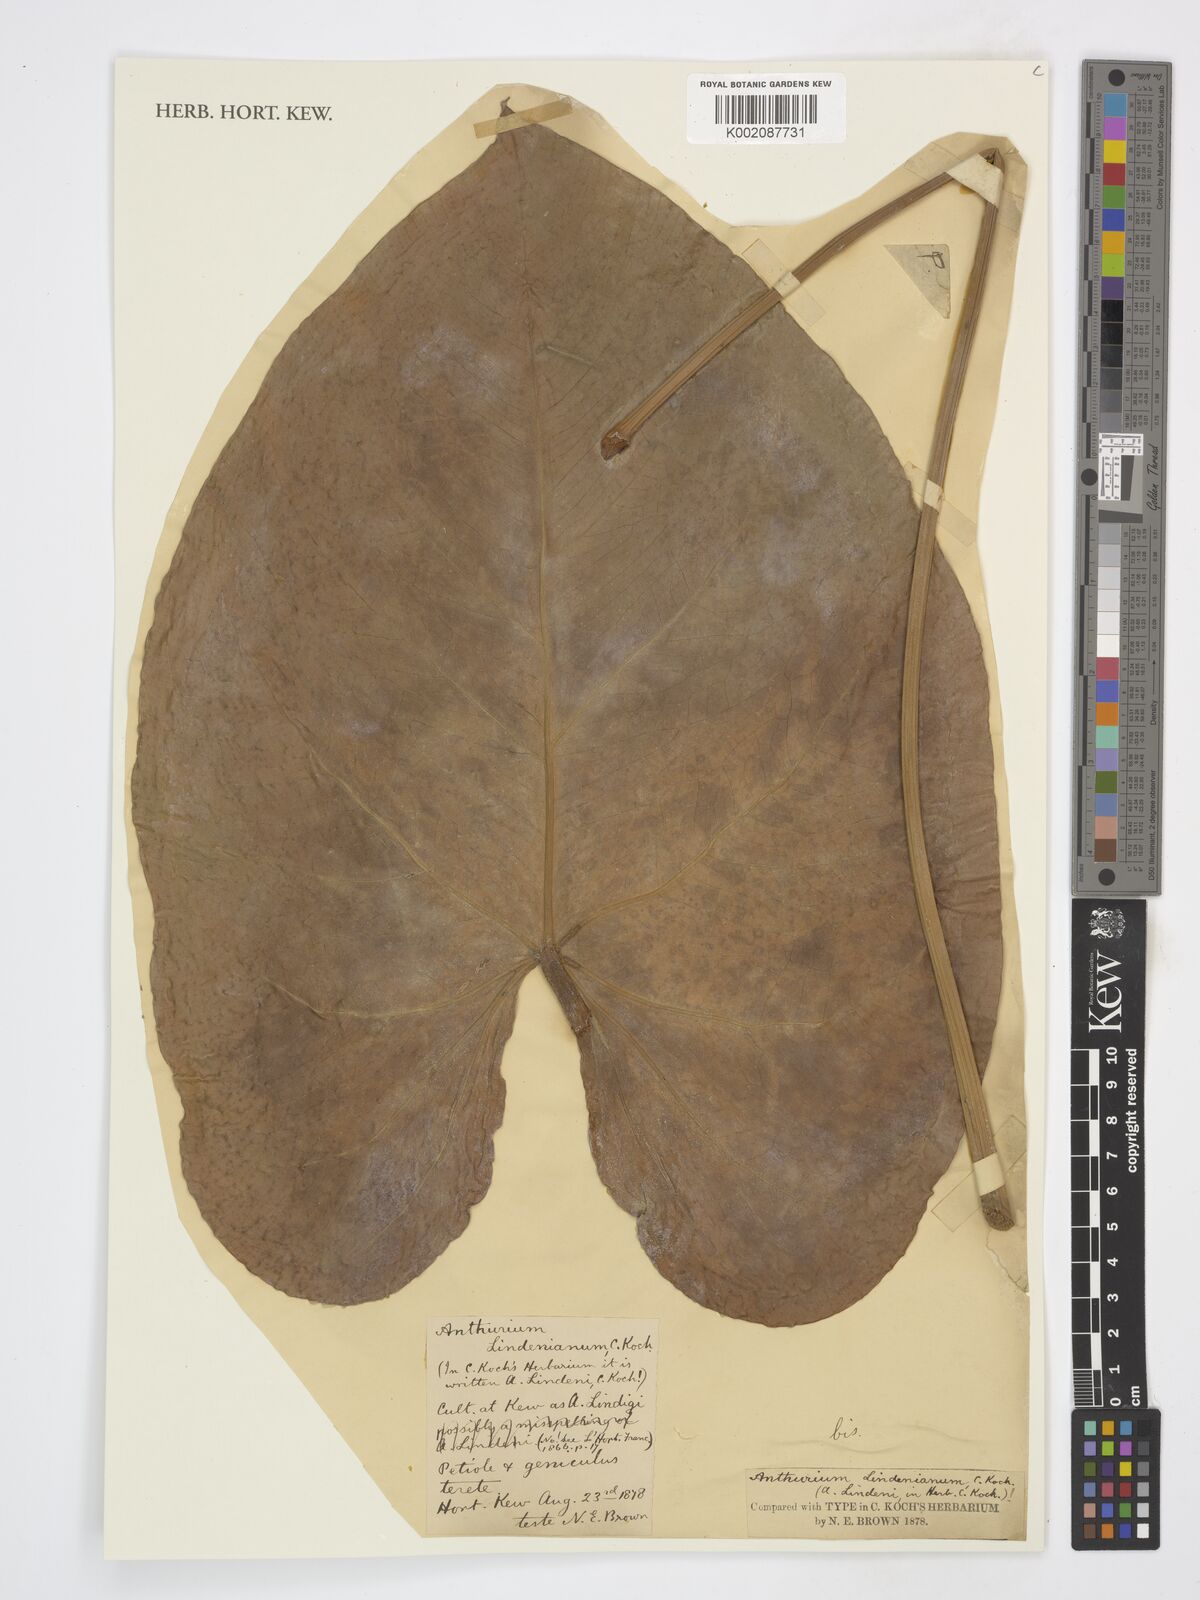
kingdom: Plantae
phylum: Tracheophyta
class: Liliopsida
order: Alismatales
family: Araceae
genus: Anthurium
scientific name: Anthurium lindenianum
